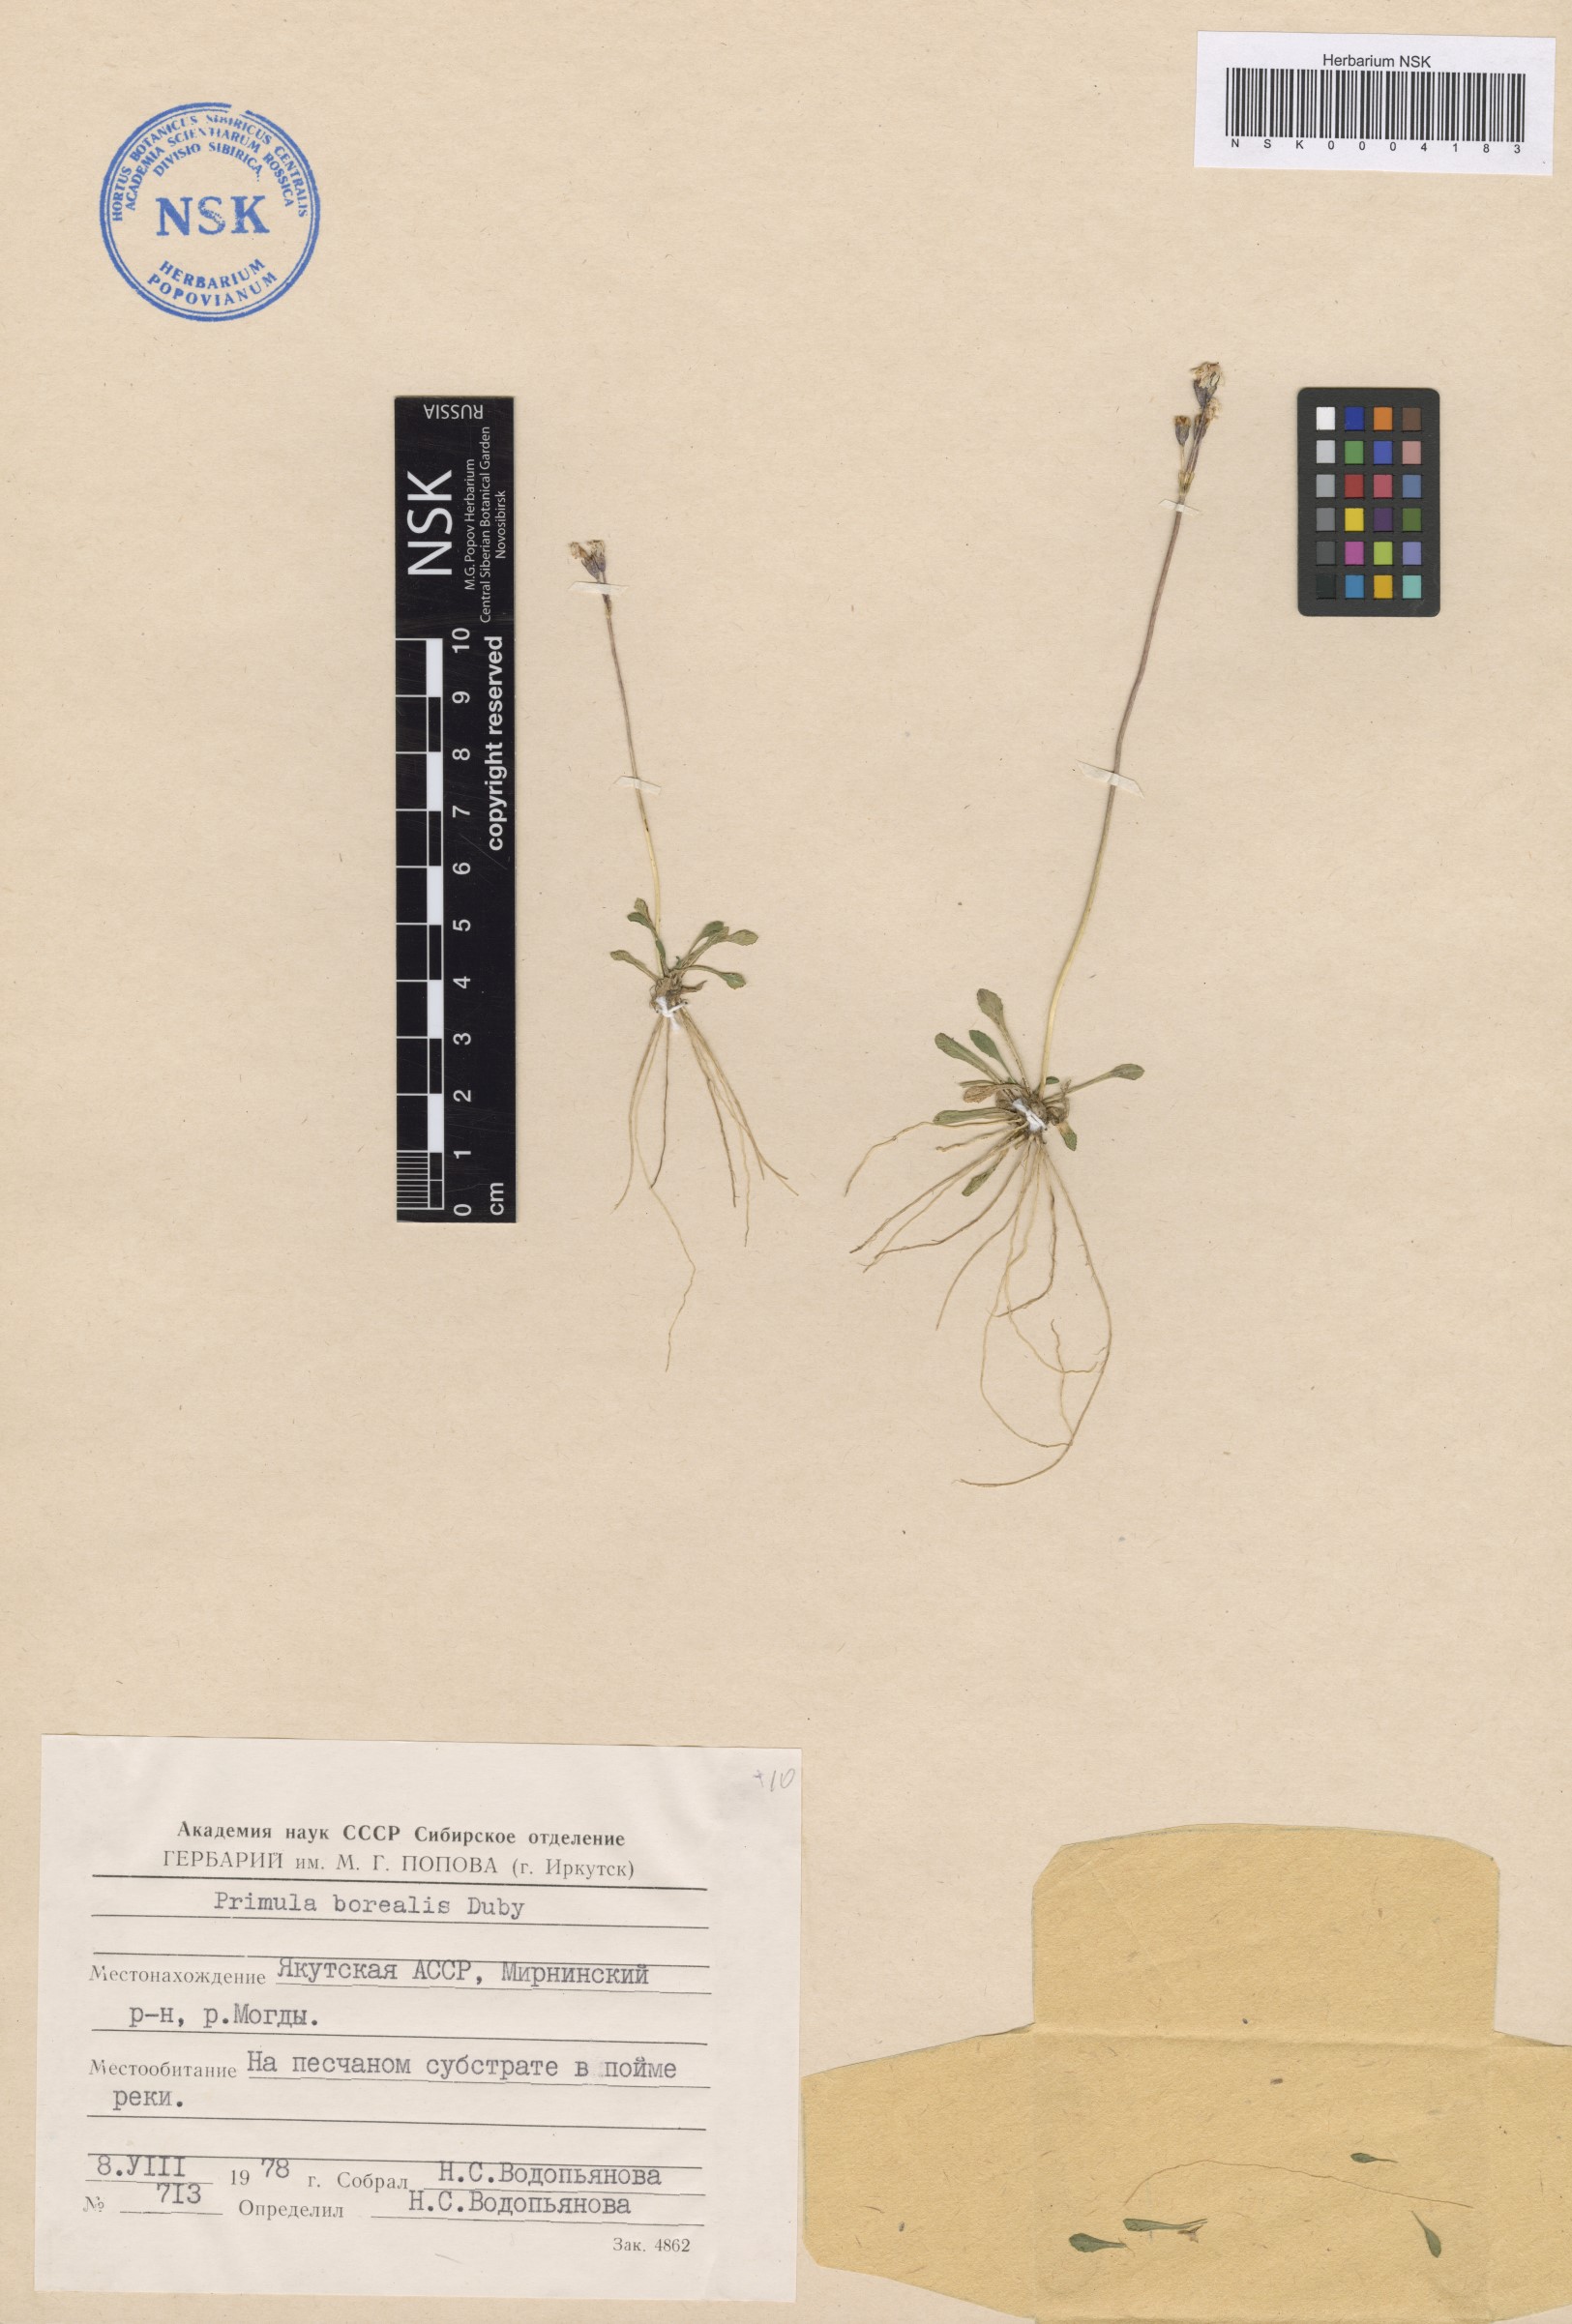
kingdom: Plantae
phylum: Tracheophyta
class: Magnoliopsida
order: Ericales
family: Primulaceae
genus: Primula
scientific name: Primula borealis
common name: Northern primrose
